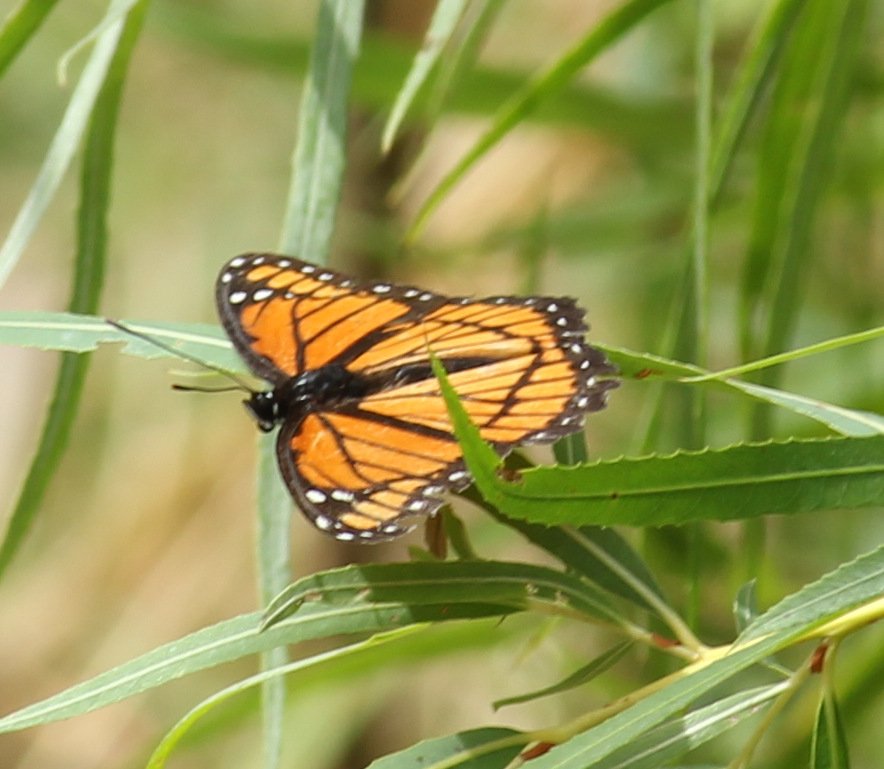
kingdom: Animalia
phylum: Arthropoda
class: Insecta
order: Lepidoptera
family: Nymphalidae
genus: Limenitis
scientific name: Limenitis archippus
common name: Viceroy
